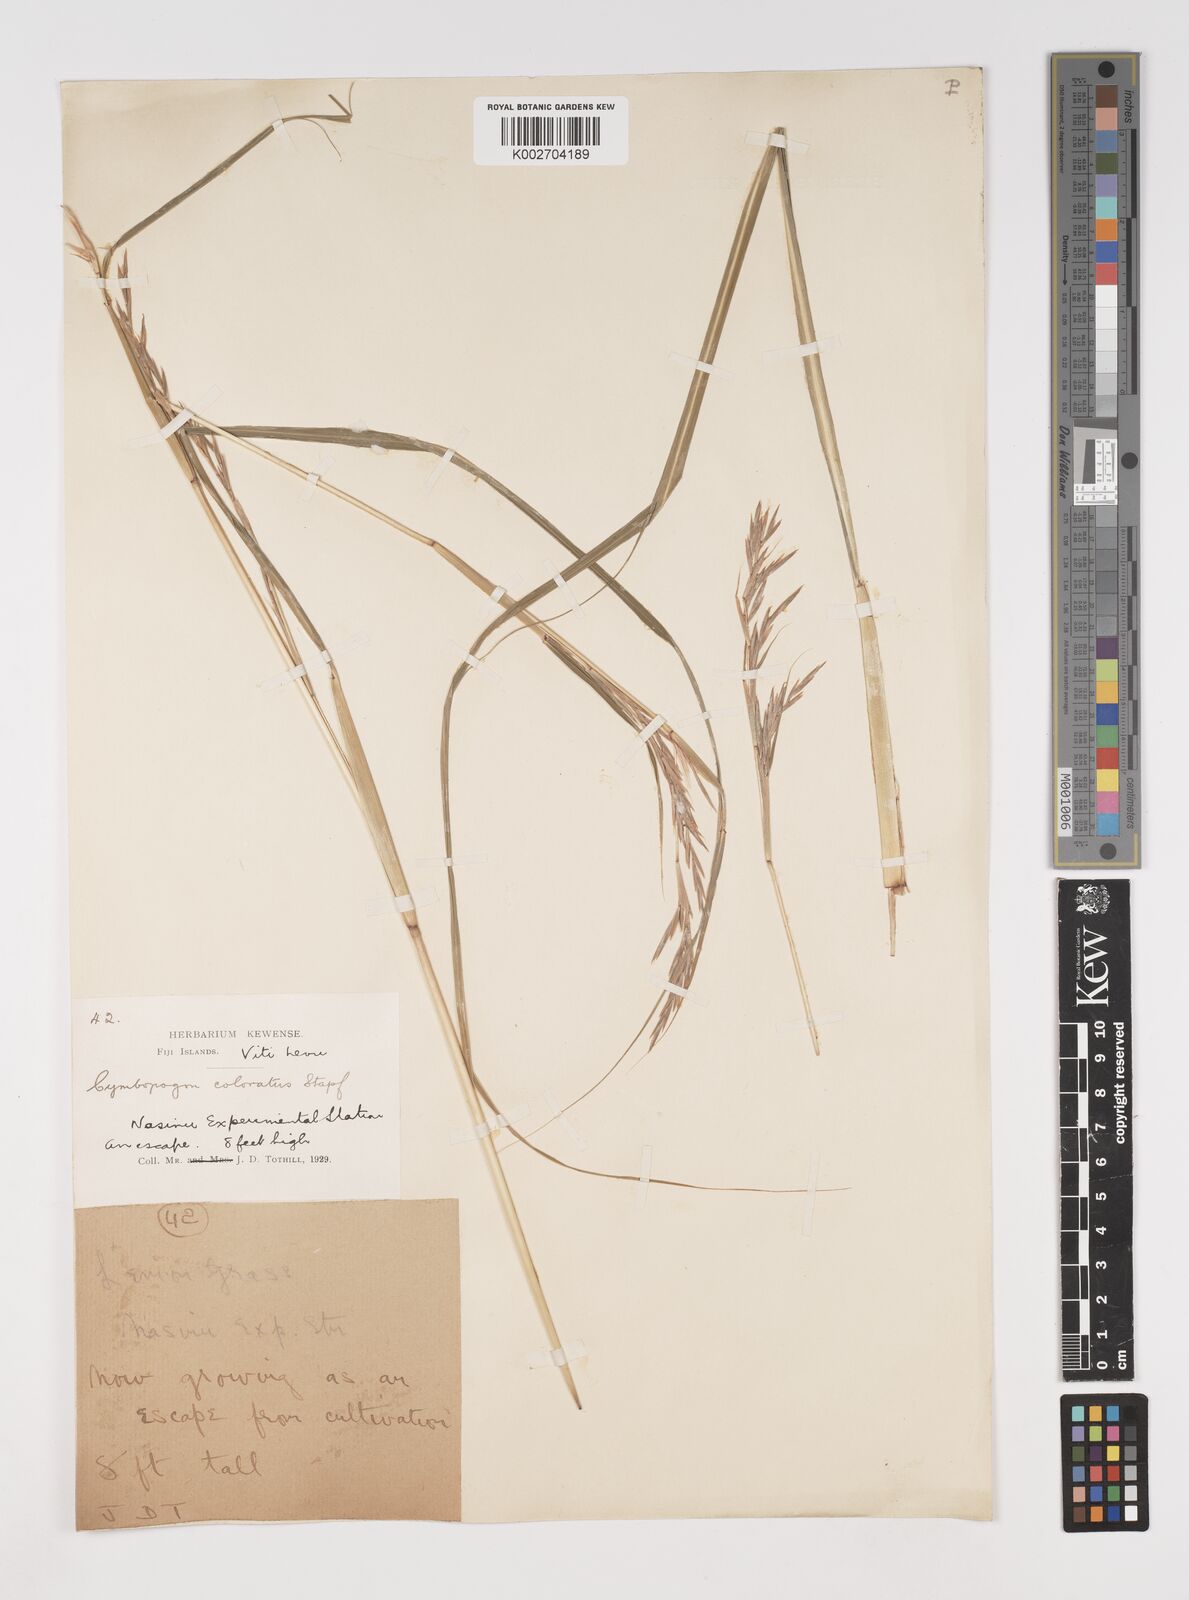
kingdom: Plantae
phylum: Tracheophyta
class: Liliopsida
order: Poales
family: Poaceae
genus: Cymbopogon
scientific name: Cymbopogon coloratus
